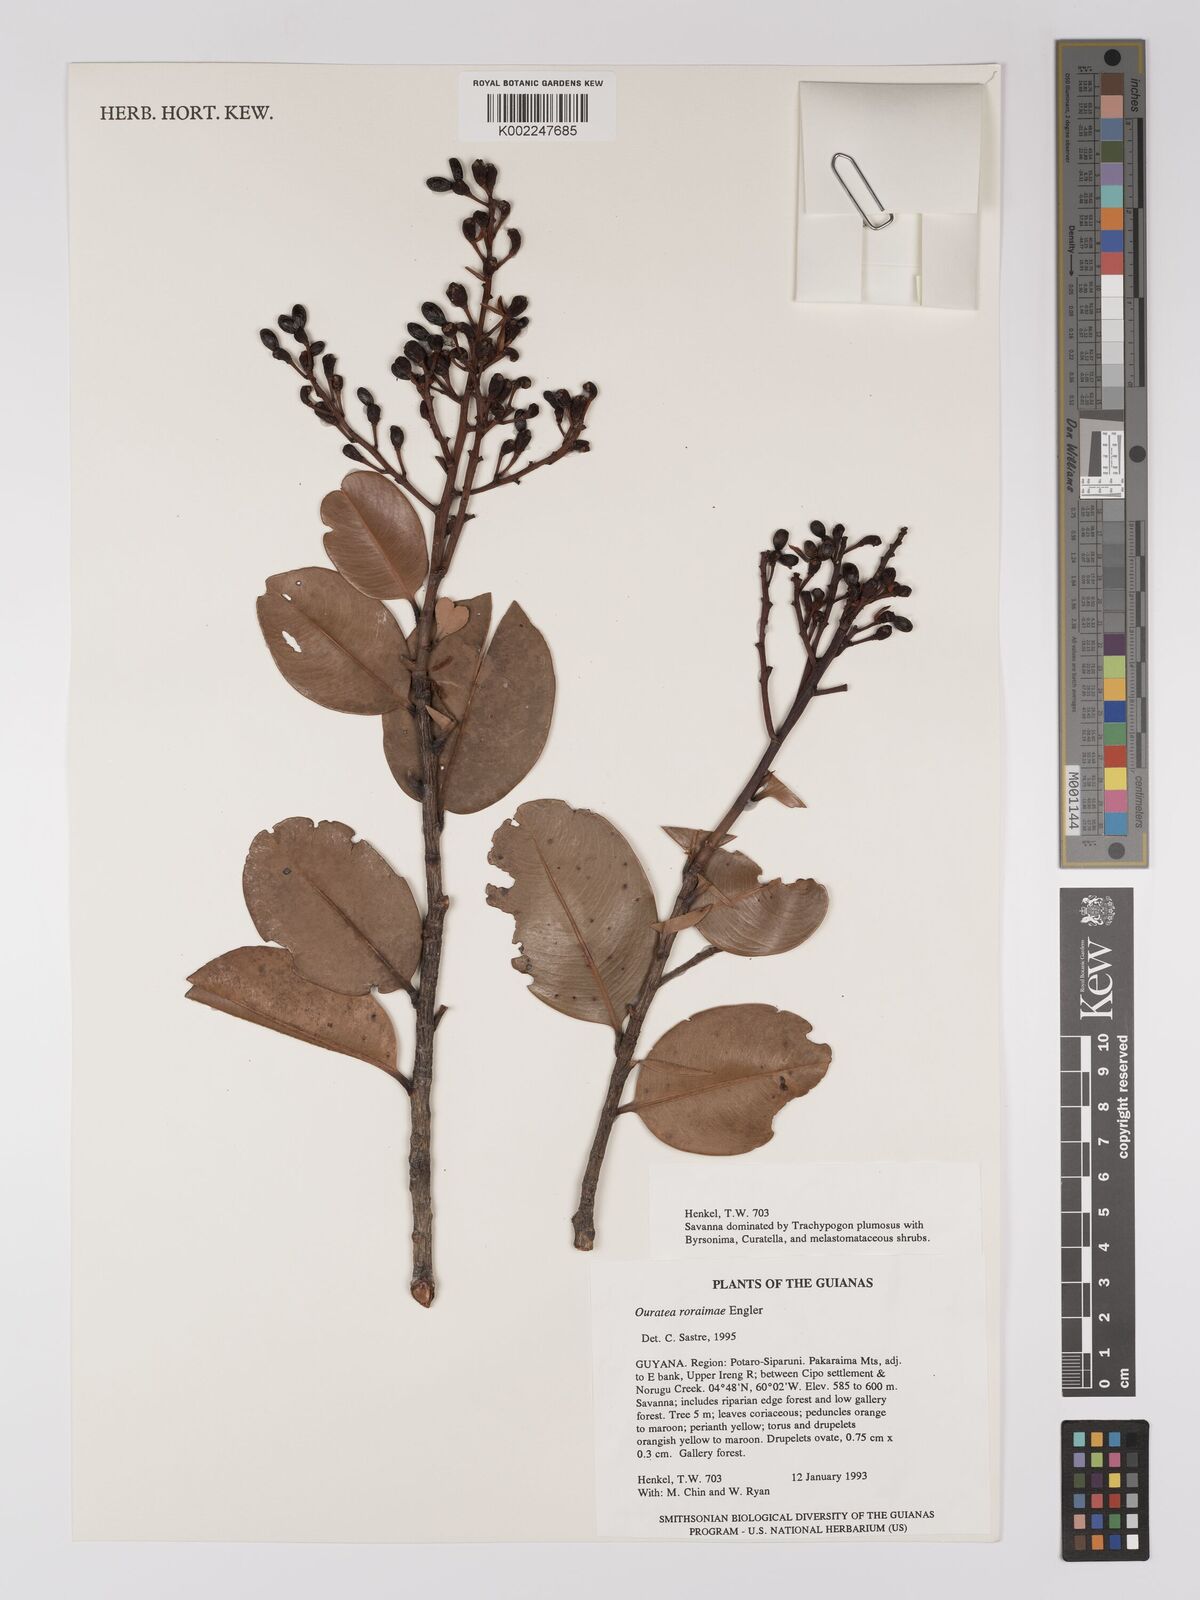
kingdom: Plantae
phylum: Tracheophyta
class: Magnoliopsida
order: Malpighiales
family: Ochnaceae
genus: Ouratea
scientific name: Ouratea roraimae
